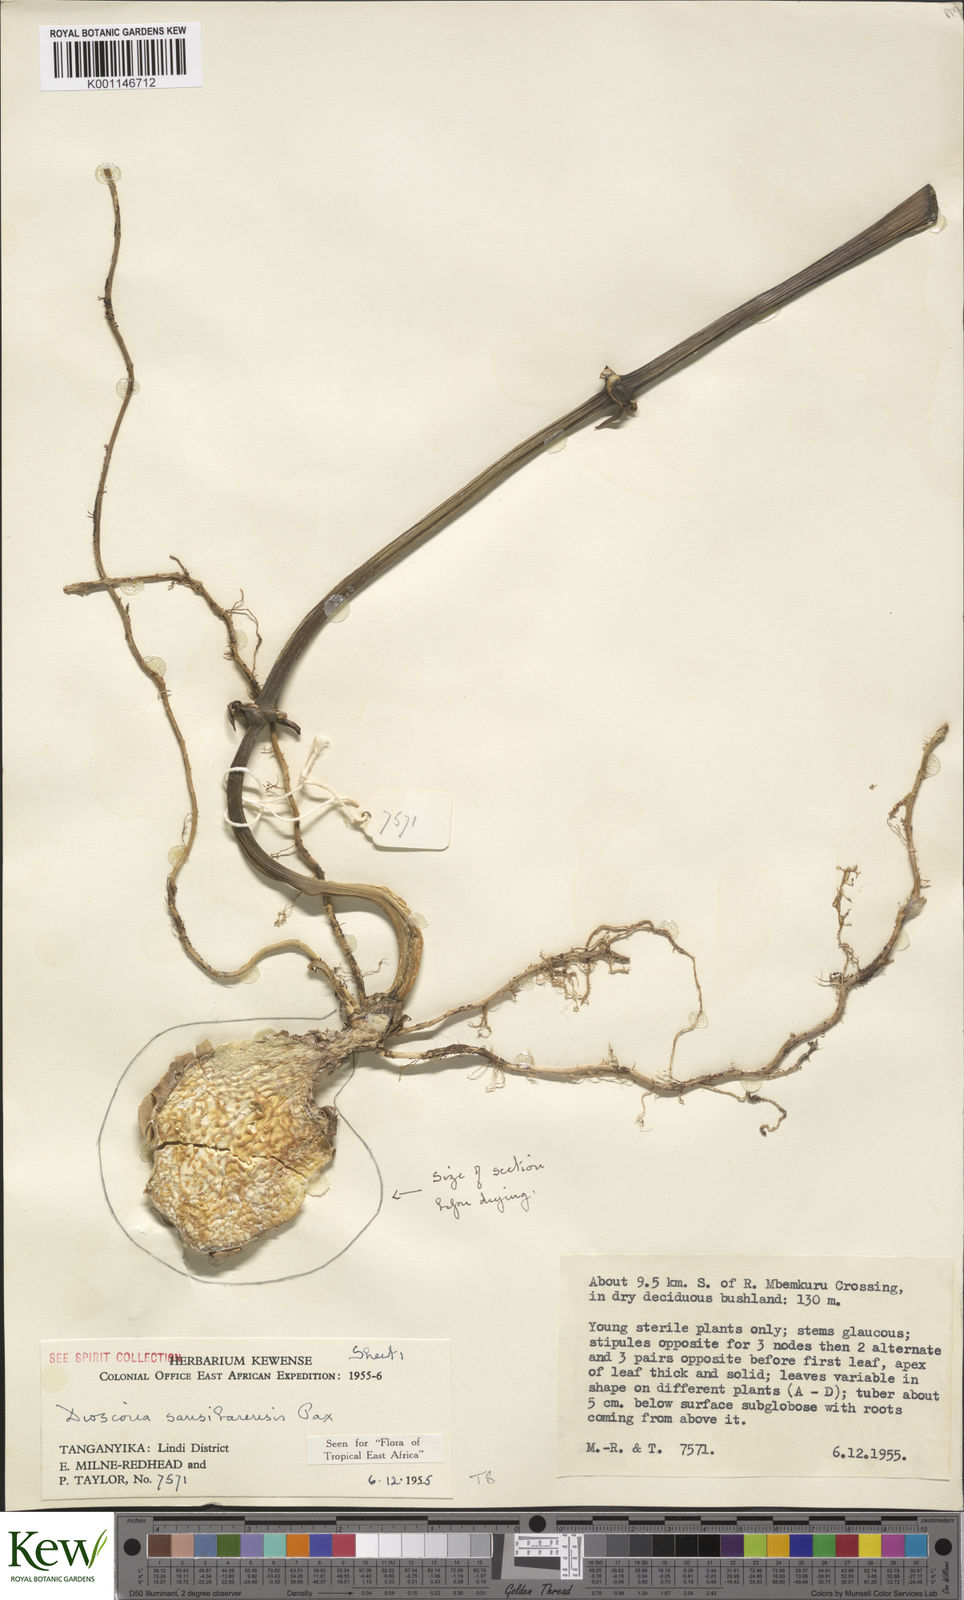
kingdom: Plantae
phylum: Tracheophyta
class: Liliopsida
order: Dioscoreales
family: Dioscoreaceae
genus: Dioscorea
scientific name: Dioscorea sansibarensis
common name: Zanzibar yam
